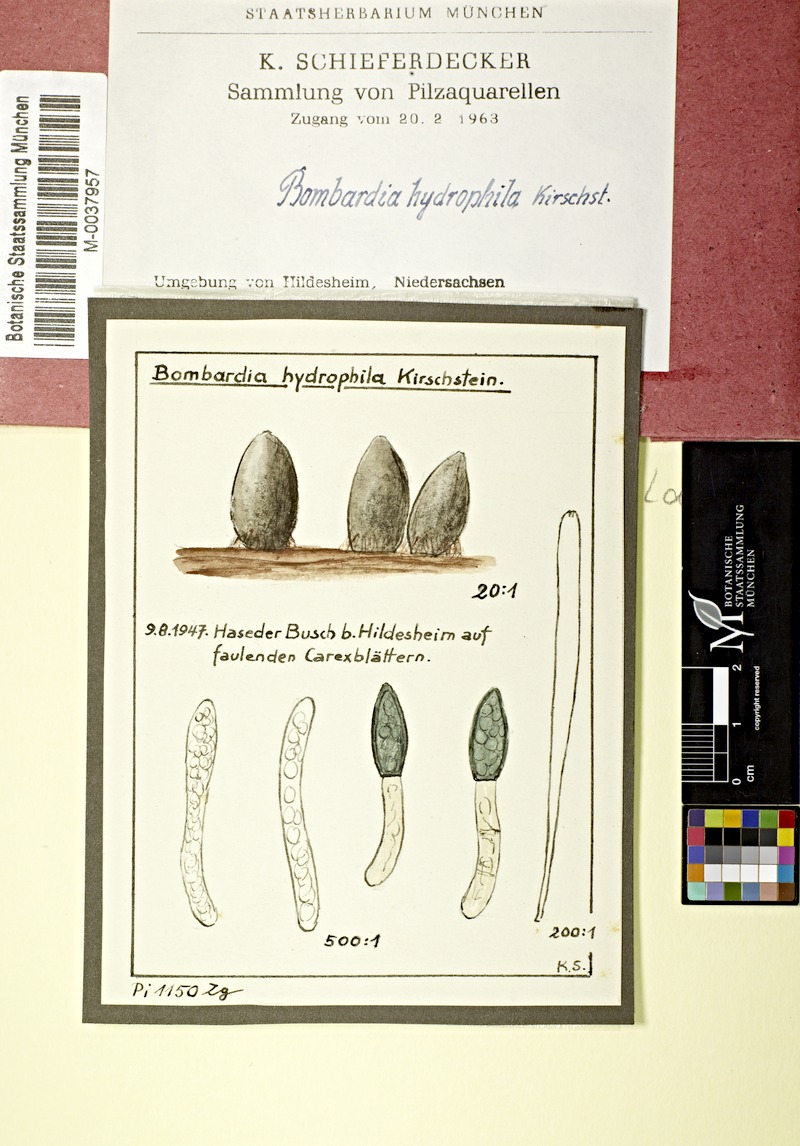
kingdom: Fungi
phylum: Ascomycota
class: Sordariomycetes
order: Sordariales
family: Podosporaceae
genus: Podospora
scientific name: Podospora
